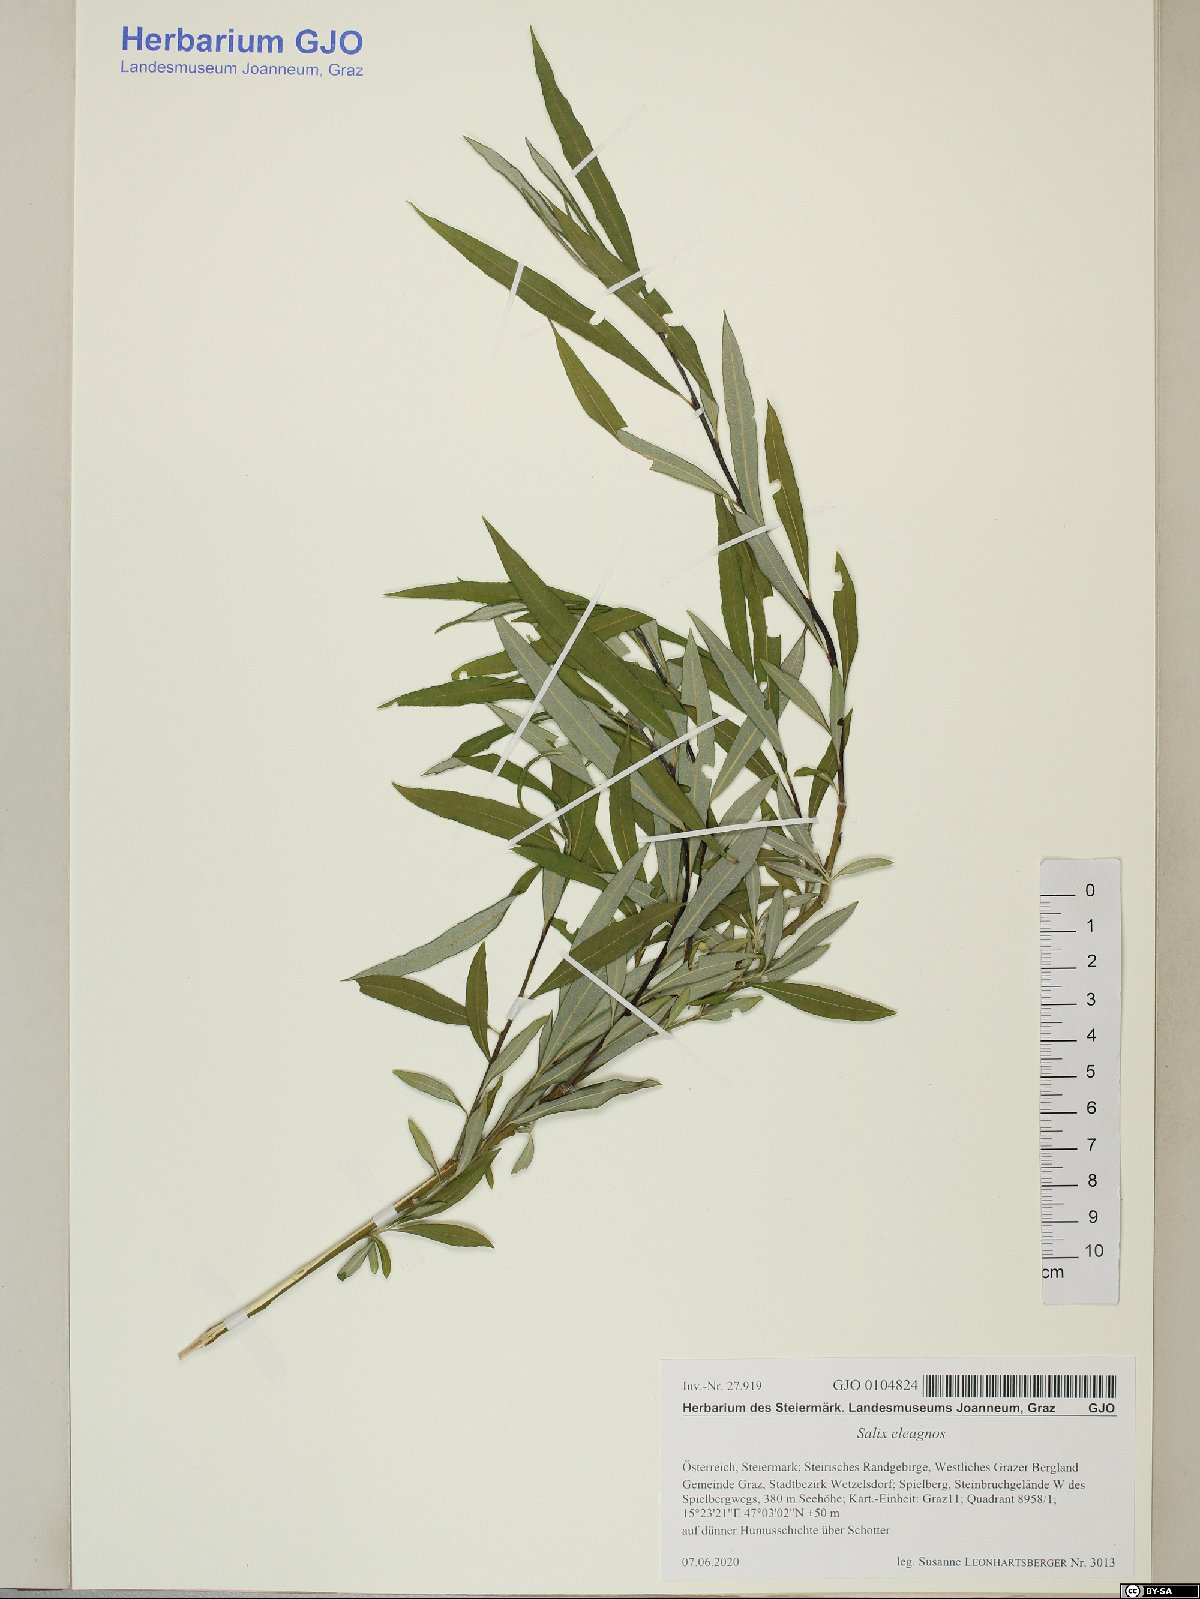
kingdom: Plantae
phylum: Tracheophyta
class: Magnoliopsida
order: Malpighiales
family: Salicaceae
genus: Salix
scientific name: Salix eleagnos
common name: Elaeagnus willow
